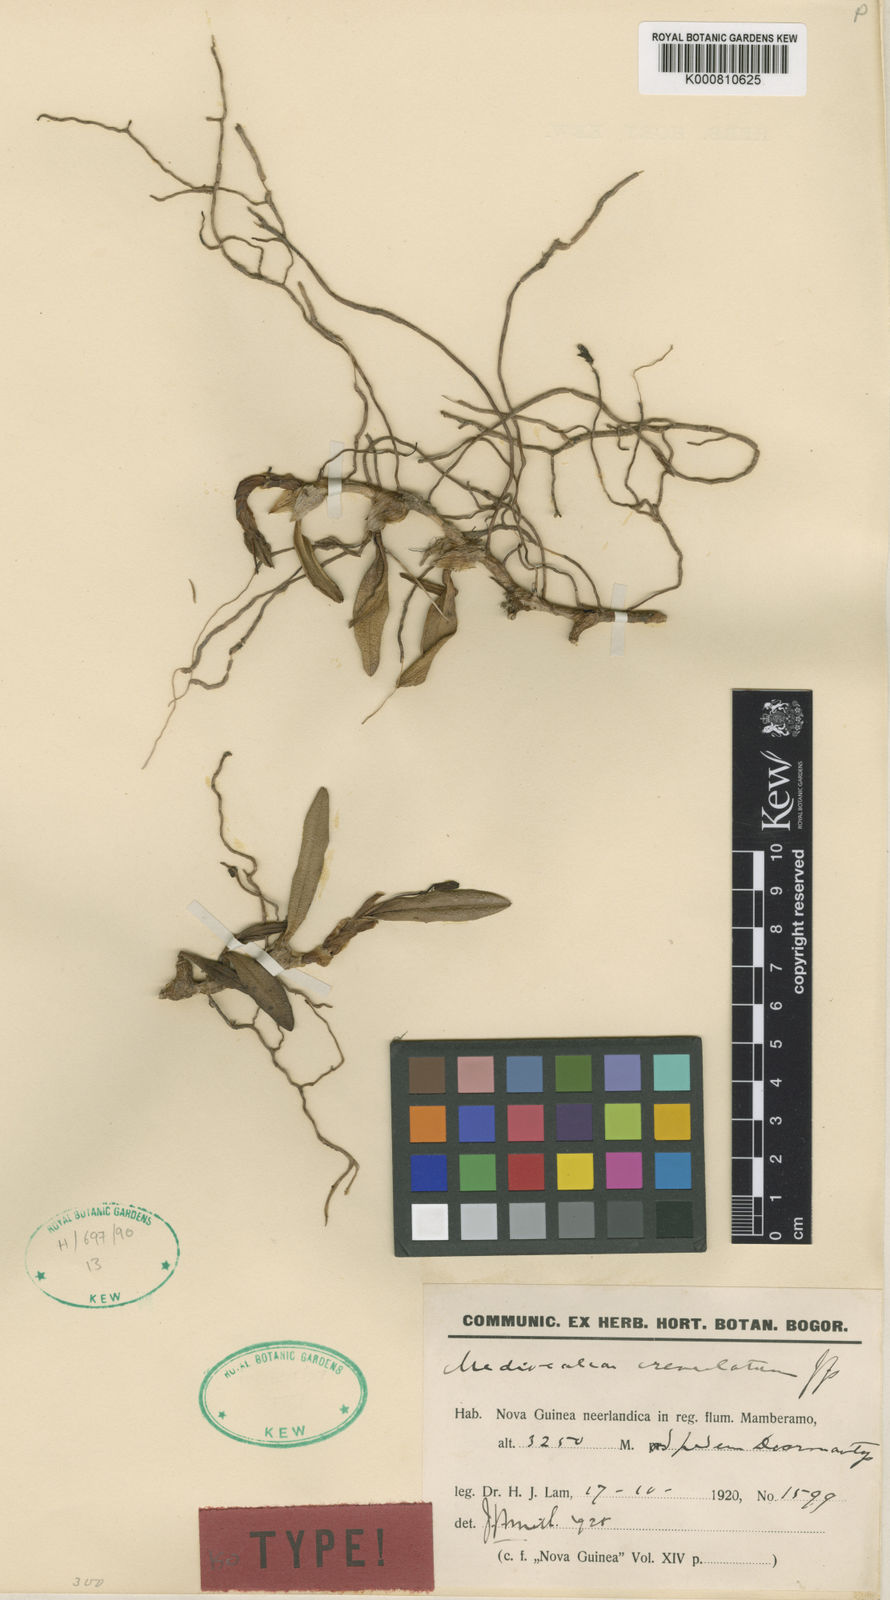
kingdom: Plantae
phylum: Tracheophyta
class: Liliopsida
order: Asparagales
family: Orchidaceae
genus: Mediocalcar
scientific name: Mediocalcar crenulatum
